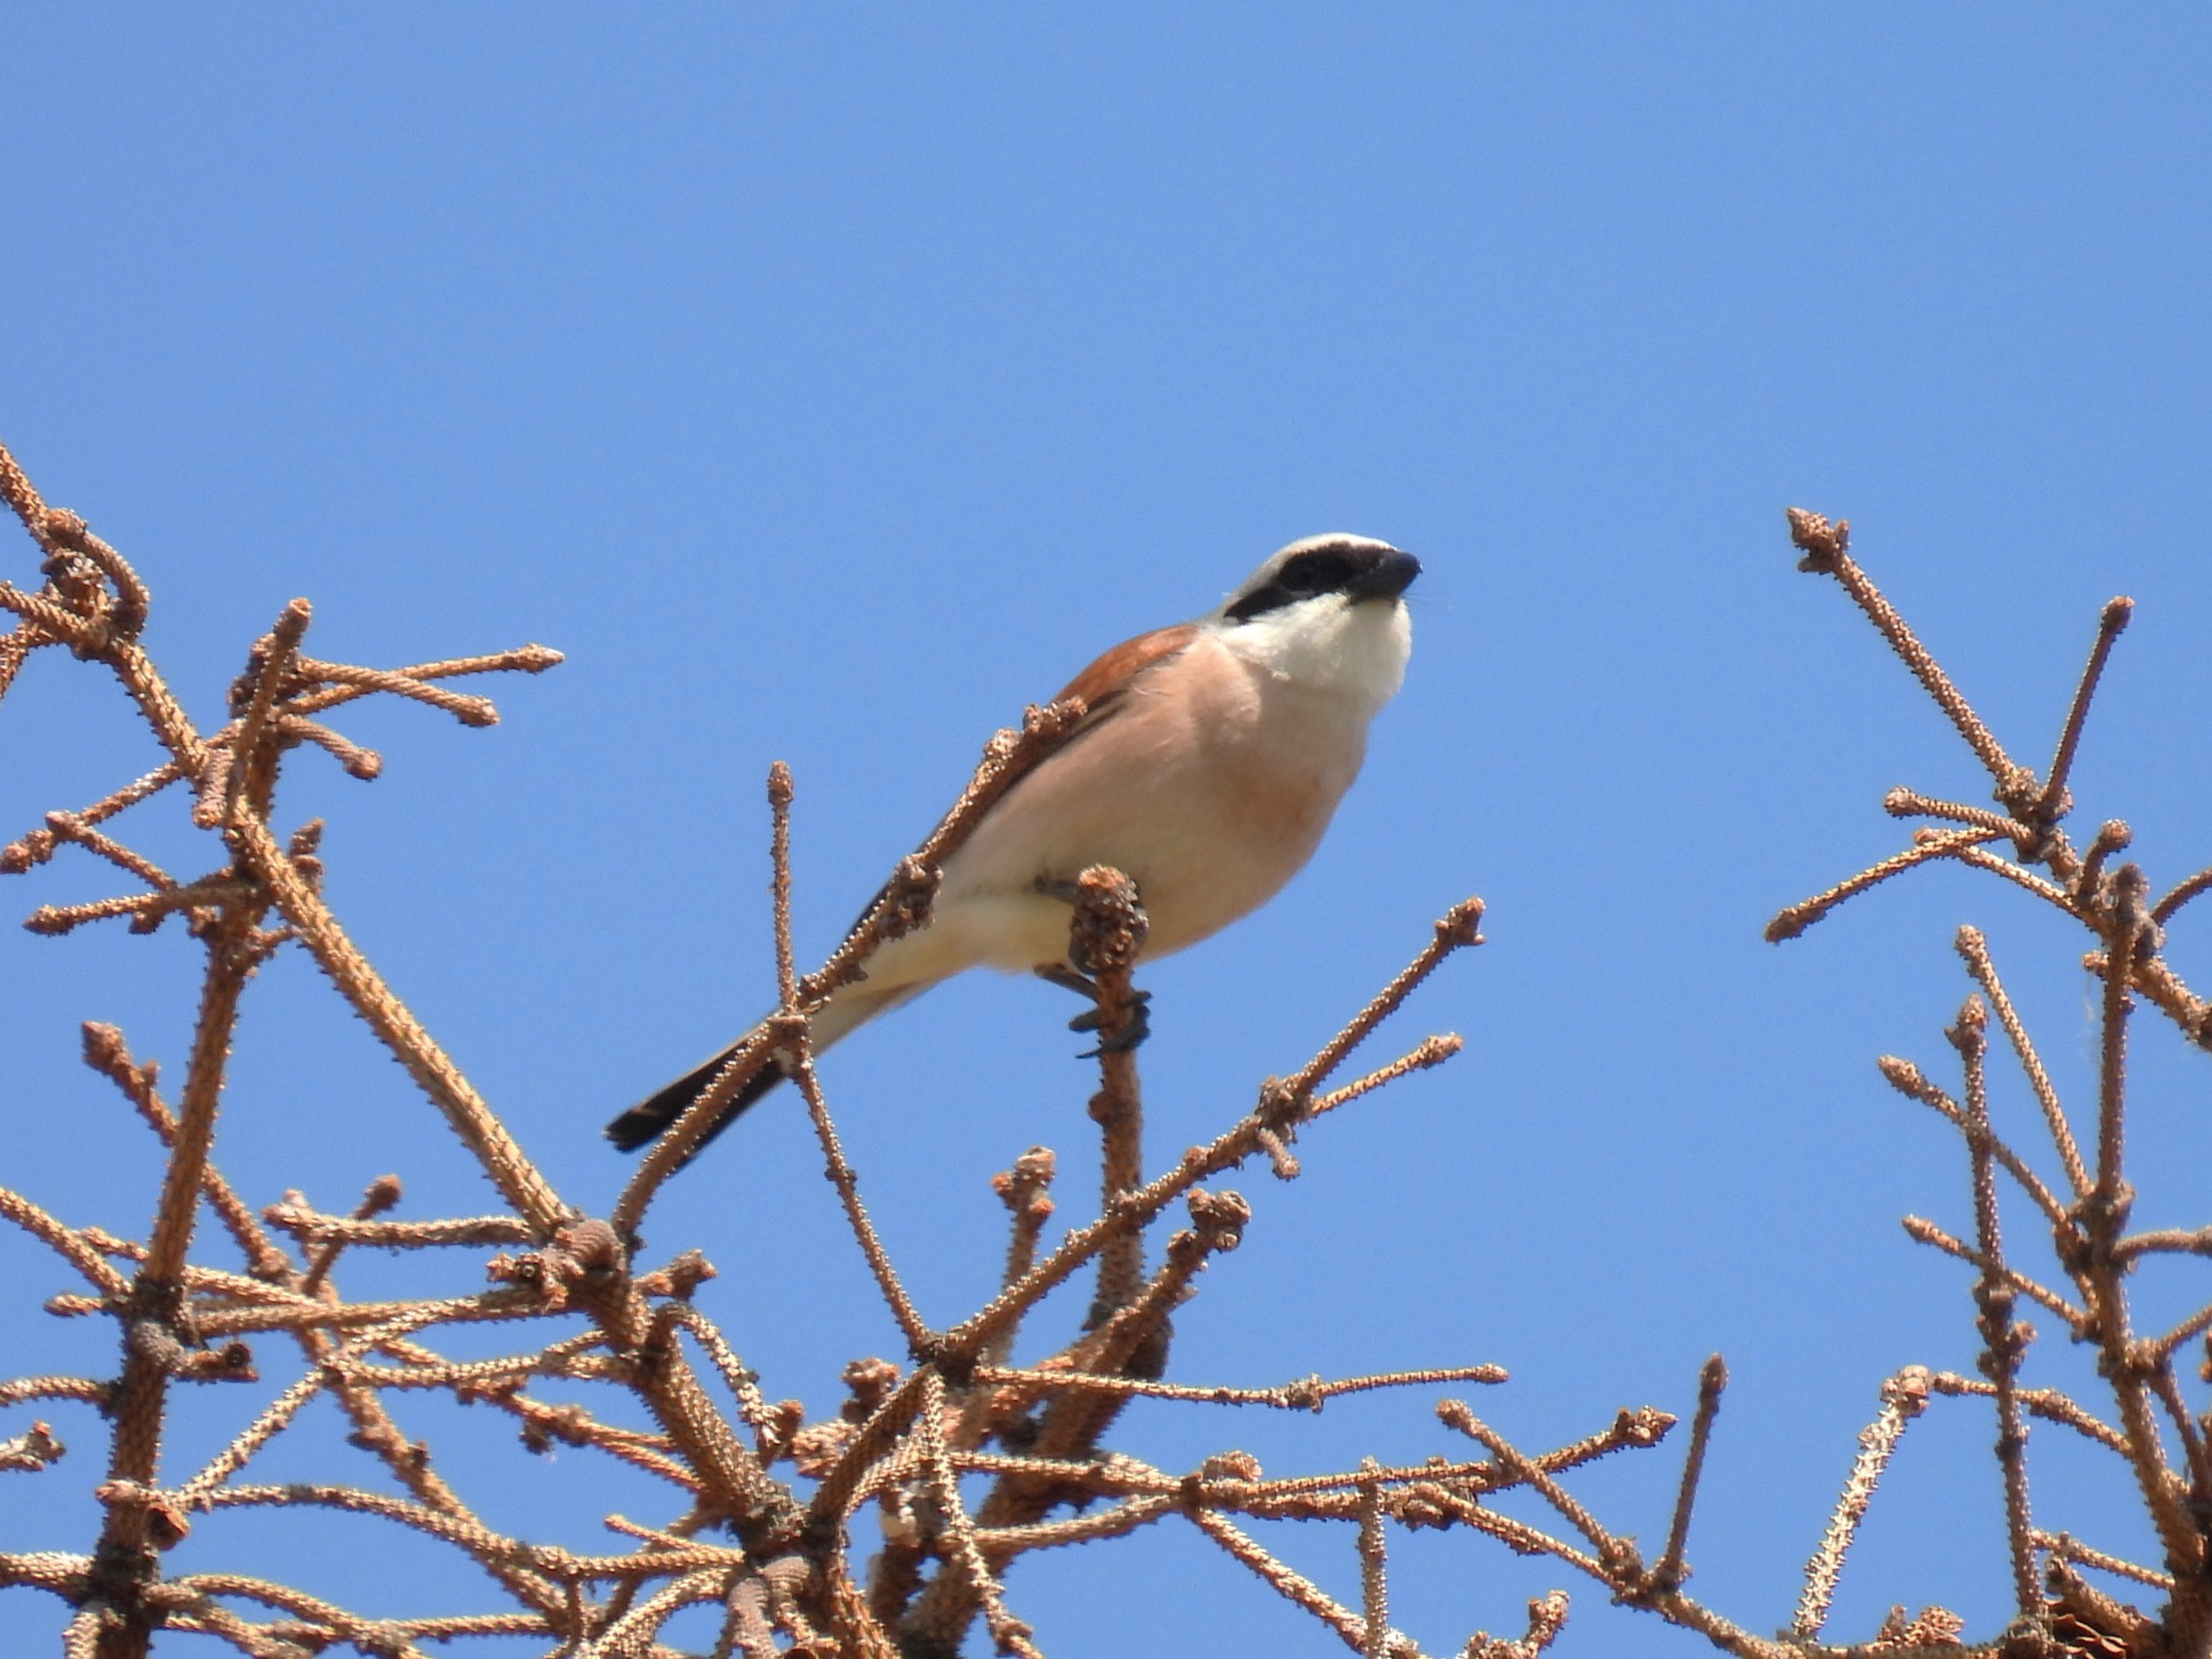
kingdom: Animalia
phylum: Chordata
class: Aves
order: Passeriformes
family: Laniidae
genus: Lanius
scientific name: Lanius collurio
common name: Rødrygget tornskade
